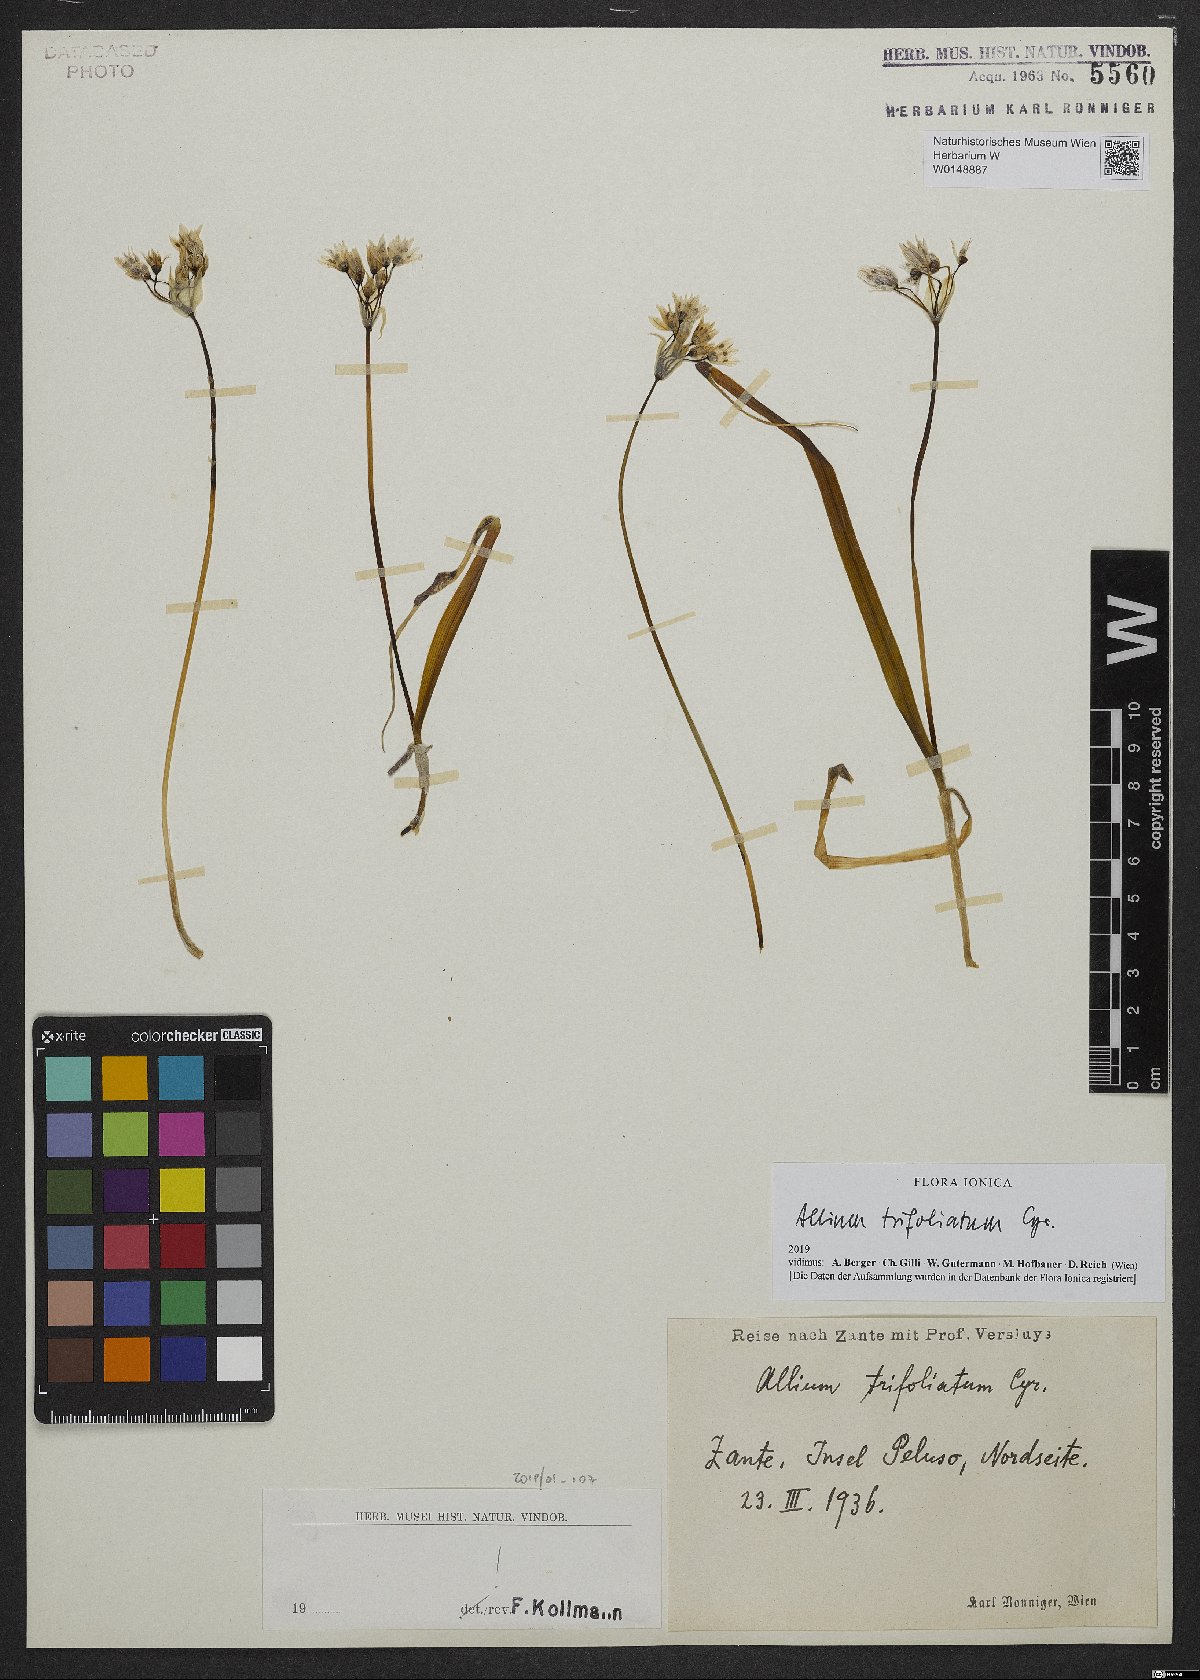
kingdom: Plantae
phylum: Tracheophyta
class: Liliopsida
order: Asparagales
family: Amaryllidaceae
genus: Allium
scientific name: Allium trifoliatum
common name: Pink garlic
